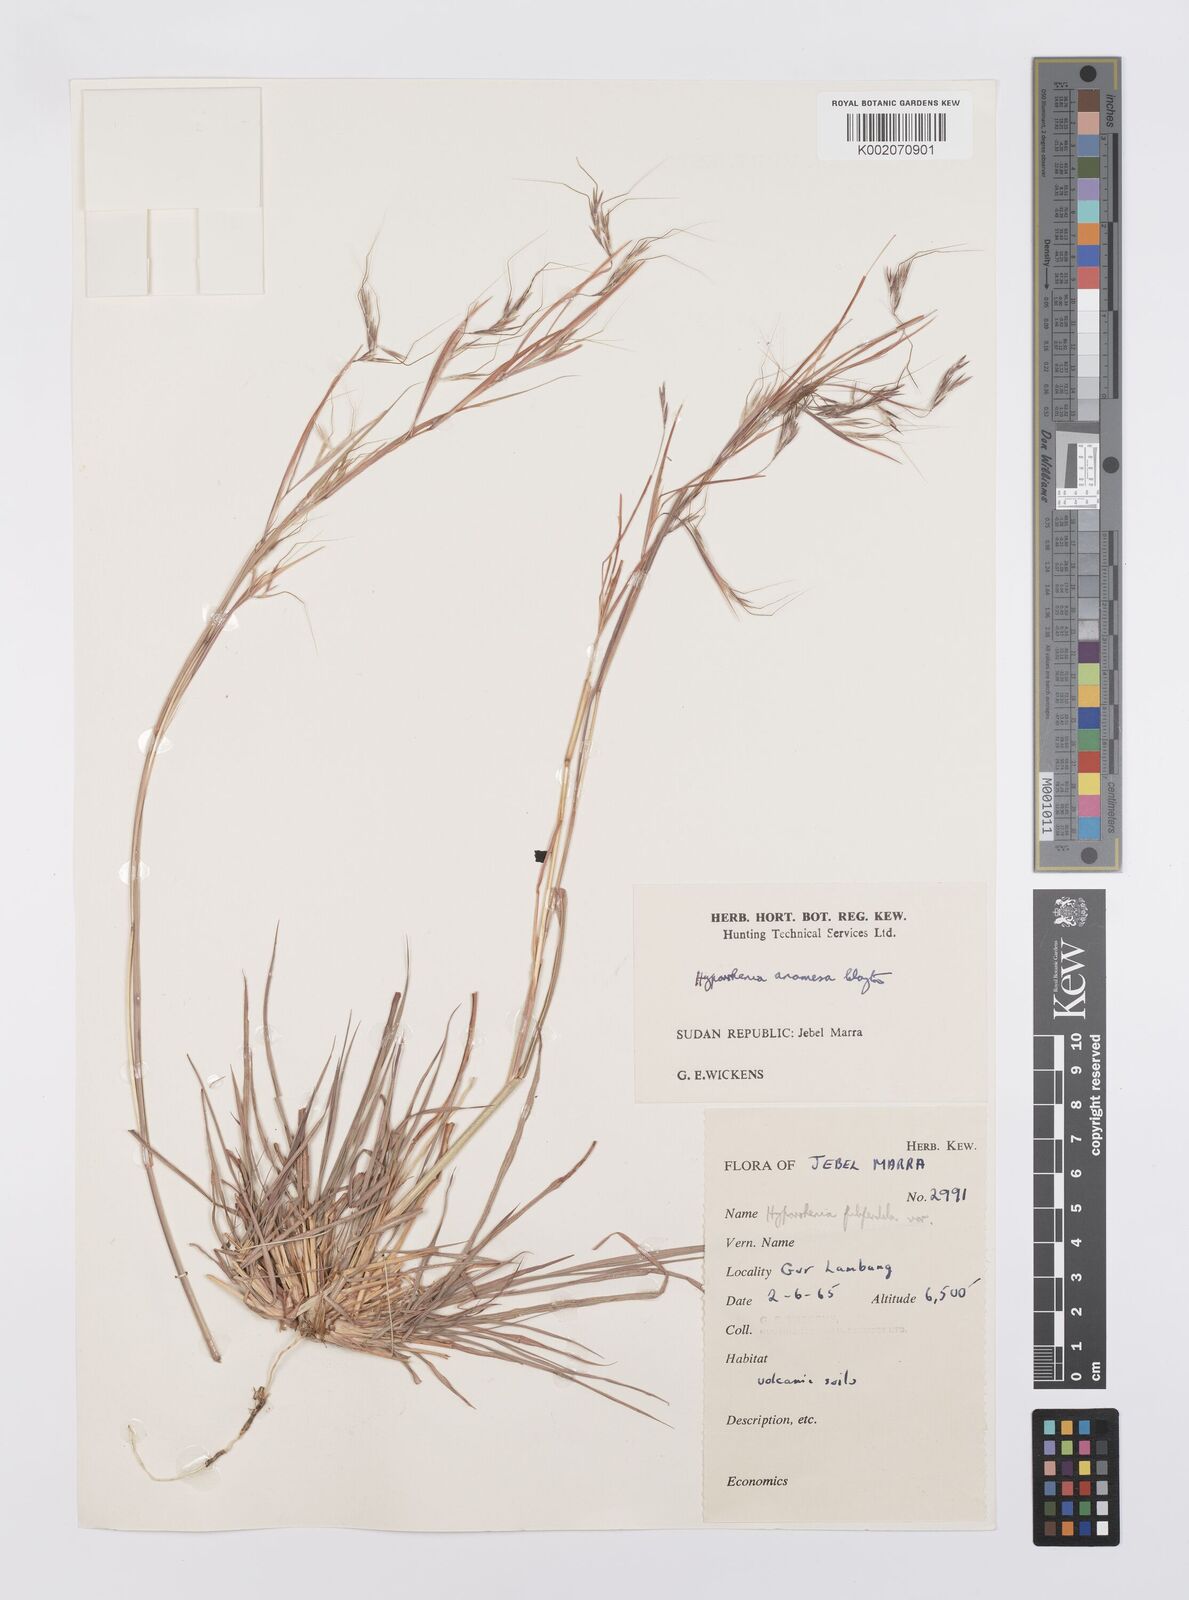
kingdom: Plantae
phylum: Tracheophyta
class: Liliopsida
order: Poales
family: Poaceae
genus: Hyparrhenia
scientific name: Hyparrhenia anamesa
